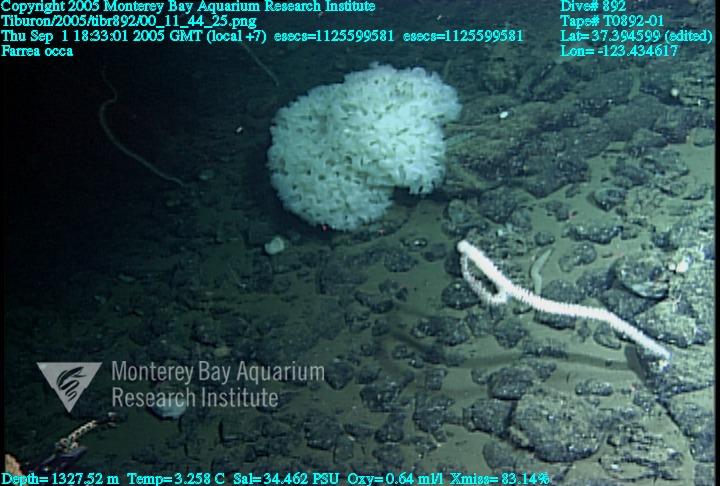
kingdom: Animalia
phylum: Porifera
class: Hexactinellida
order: Sceptrulophora
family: Farreidae
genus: Farrea
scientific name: Farrea occa
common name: Reversed glass sponge
